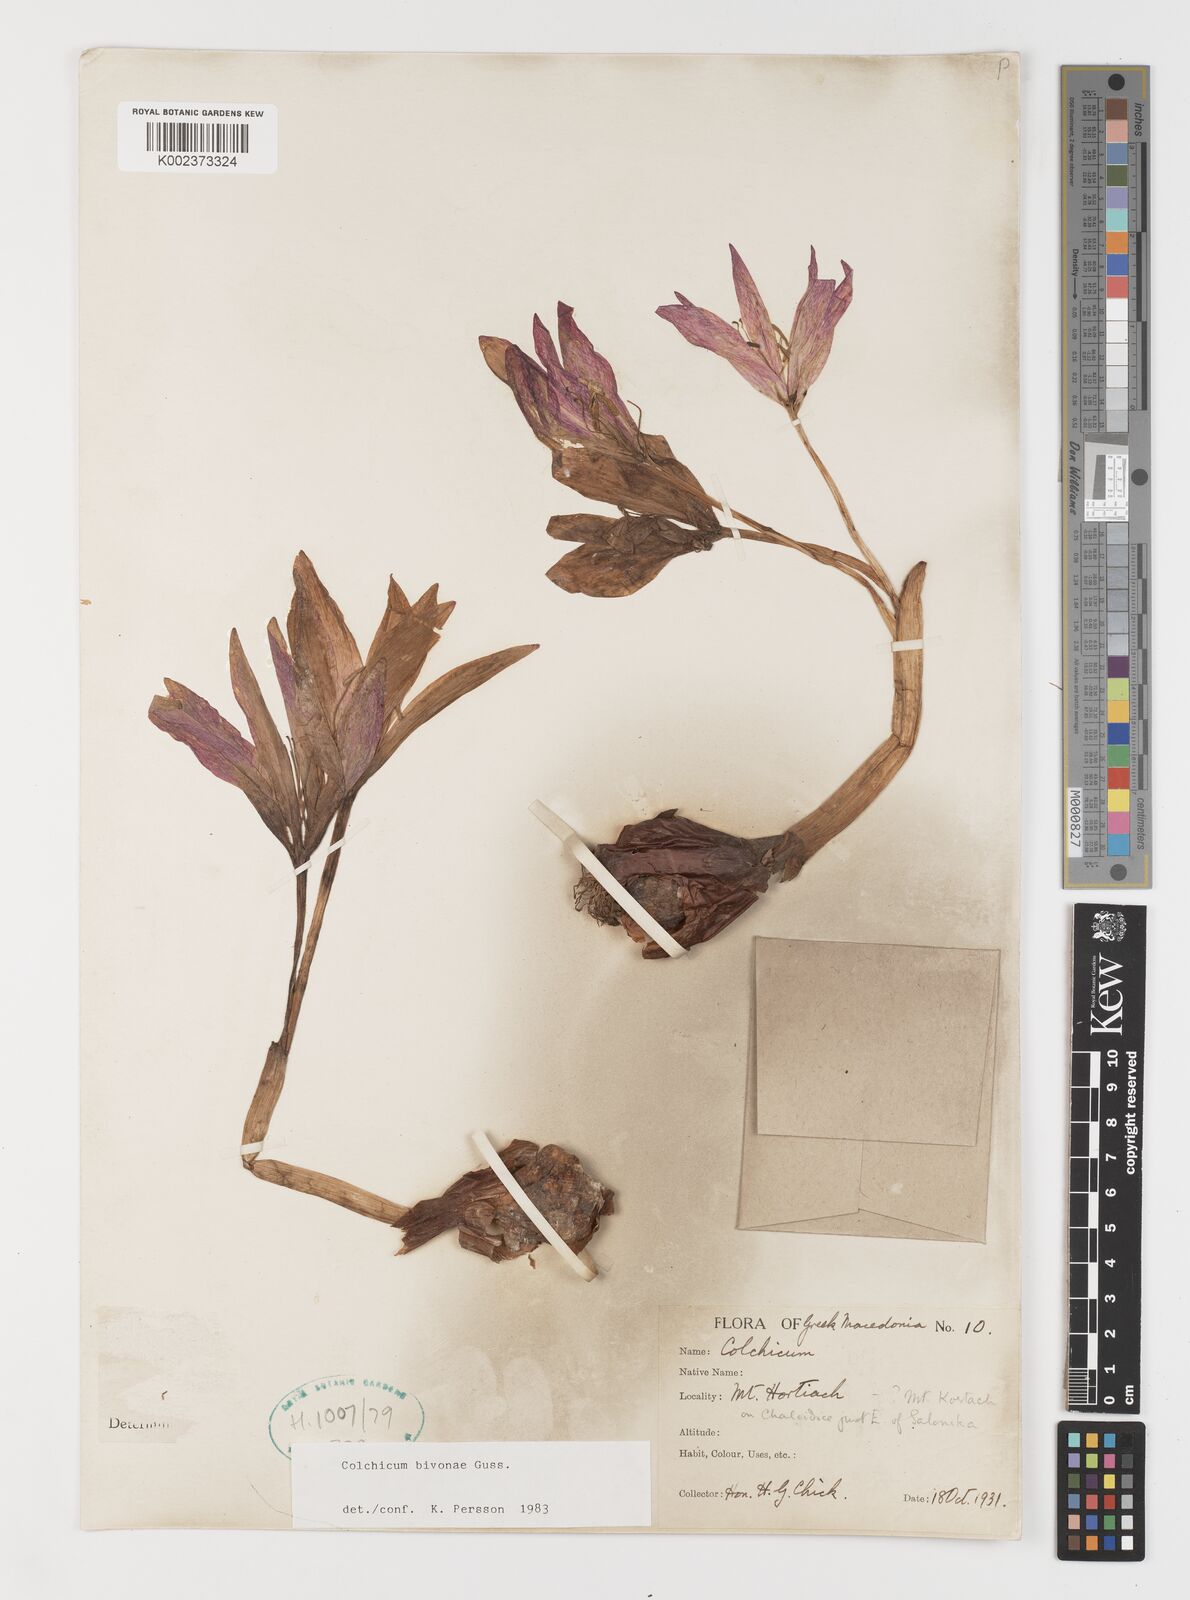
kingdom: Plantae
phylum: Tracheophyta
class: Liliopsida
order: Liliales
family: Colchicaceae
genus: Colchicum
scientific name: Colchicum bivonae
